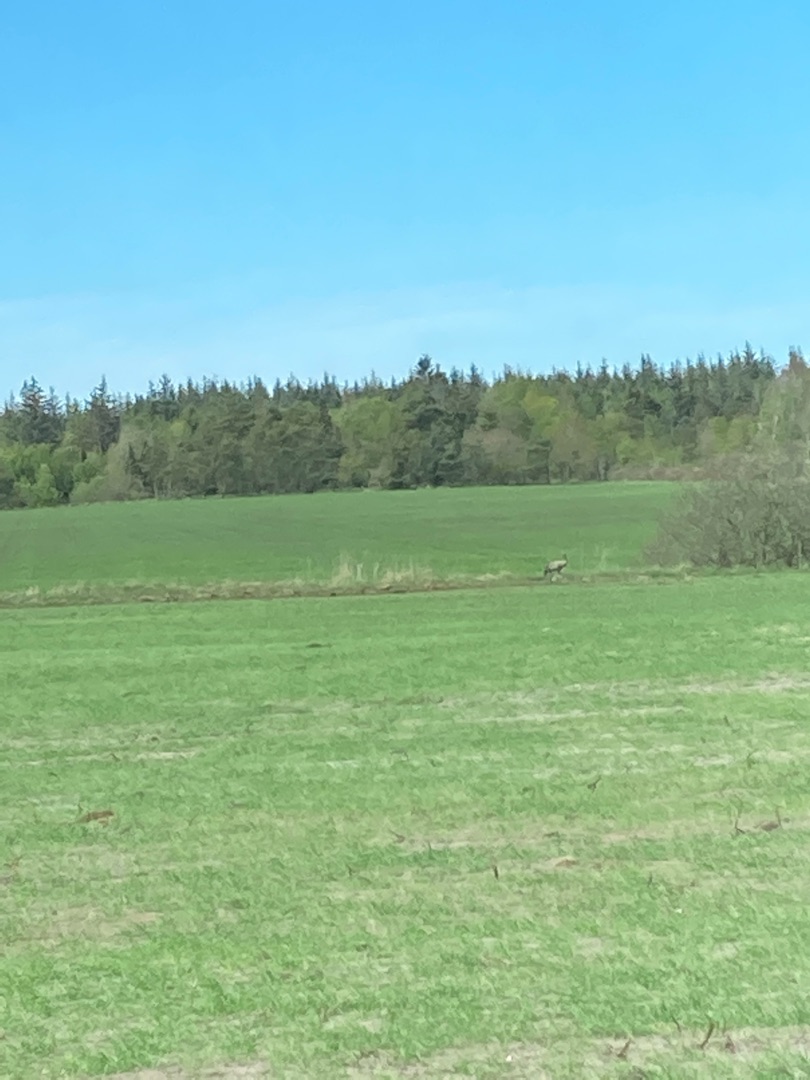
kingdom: Animalia
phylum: Chordata
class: Aves
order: Gruiformes
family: Gruidae
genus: Grus
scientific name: Grus grus
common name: Trane
